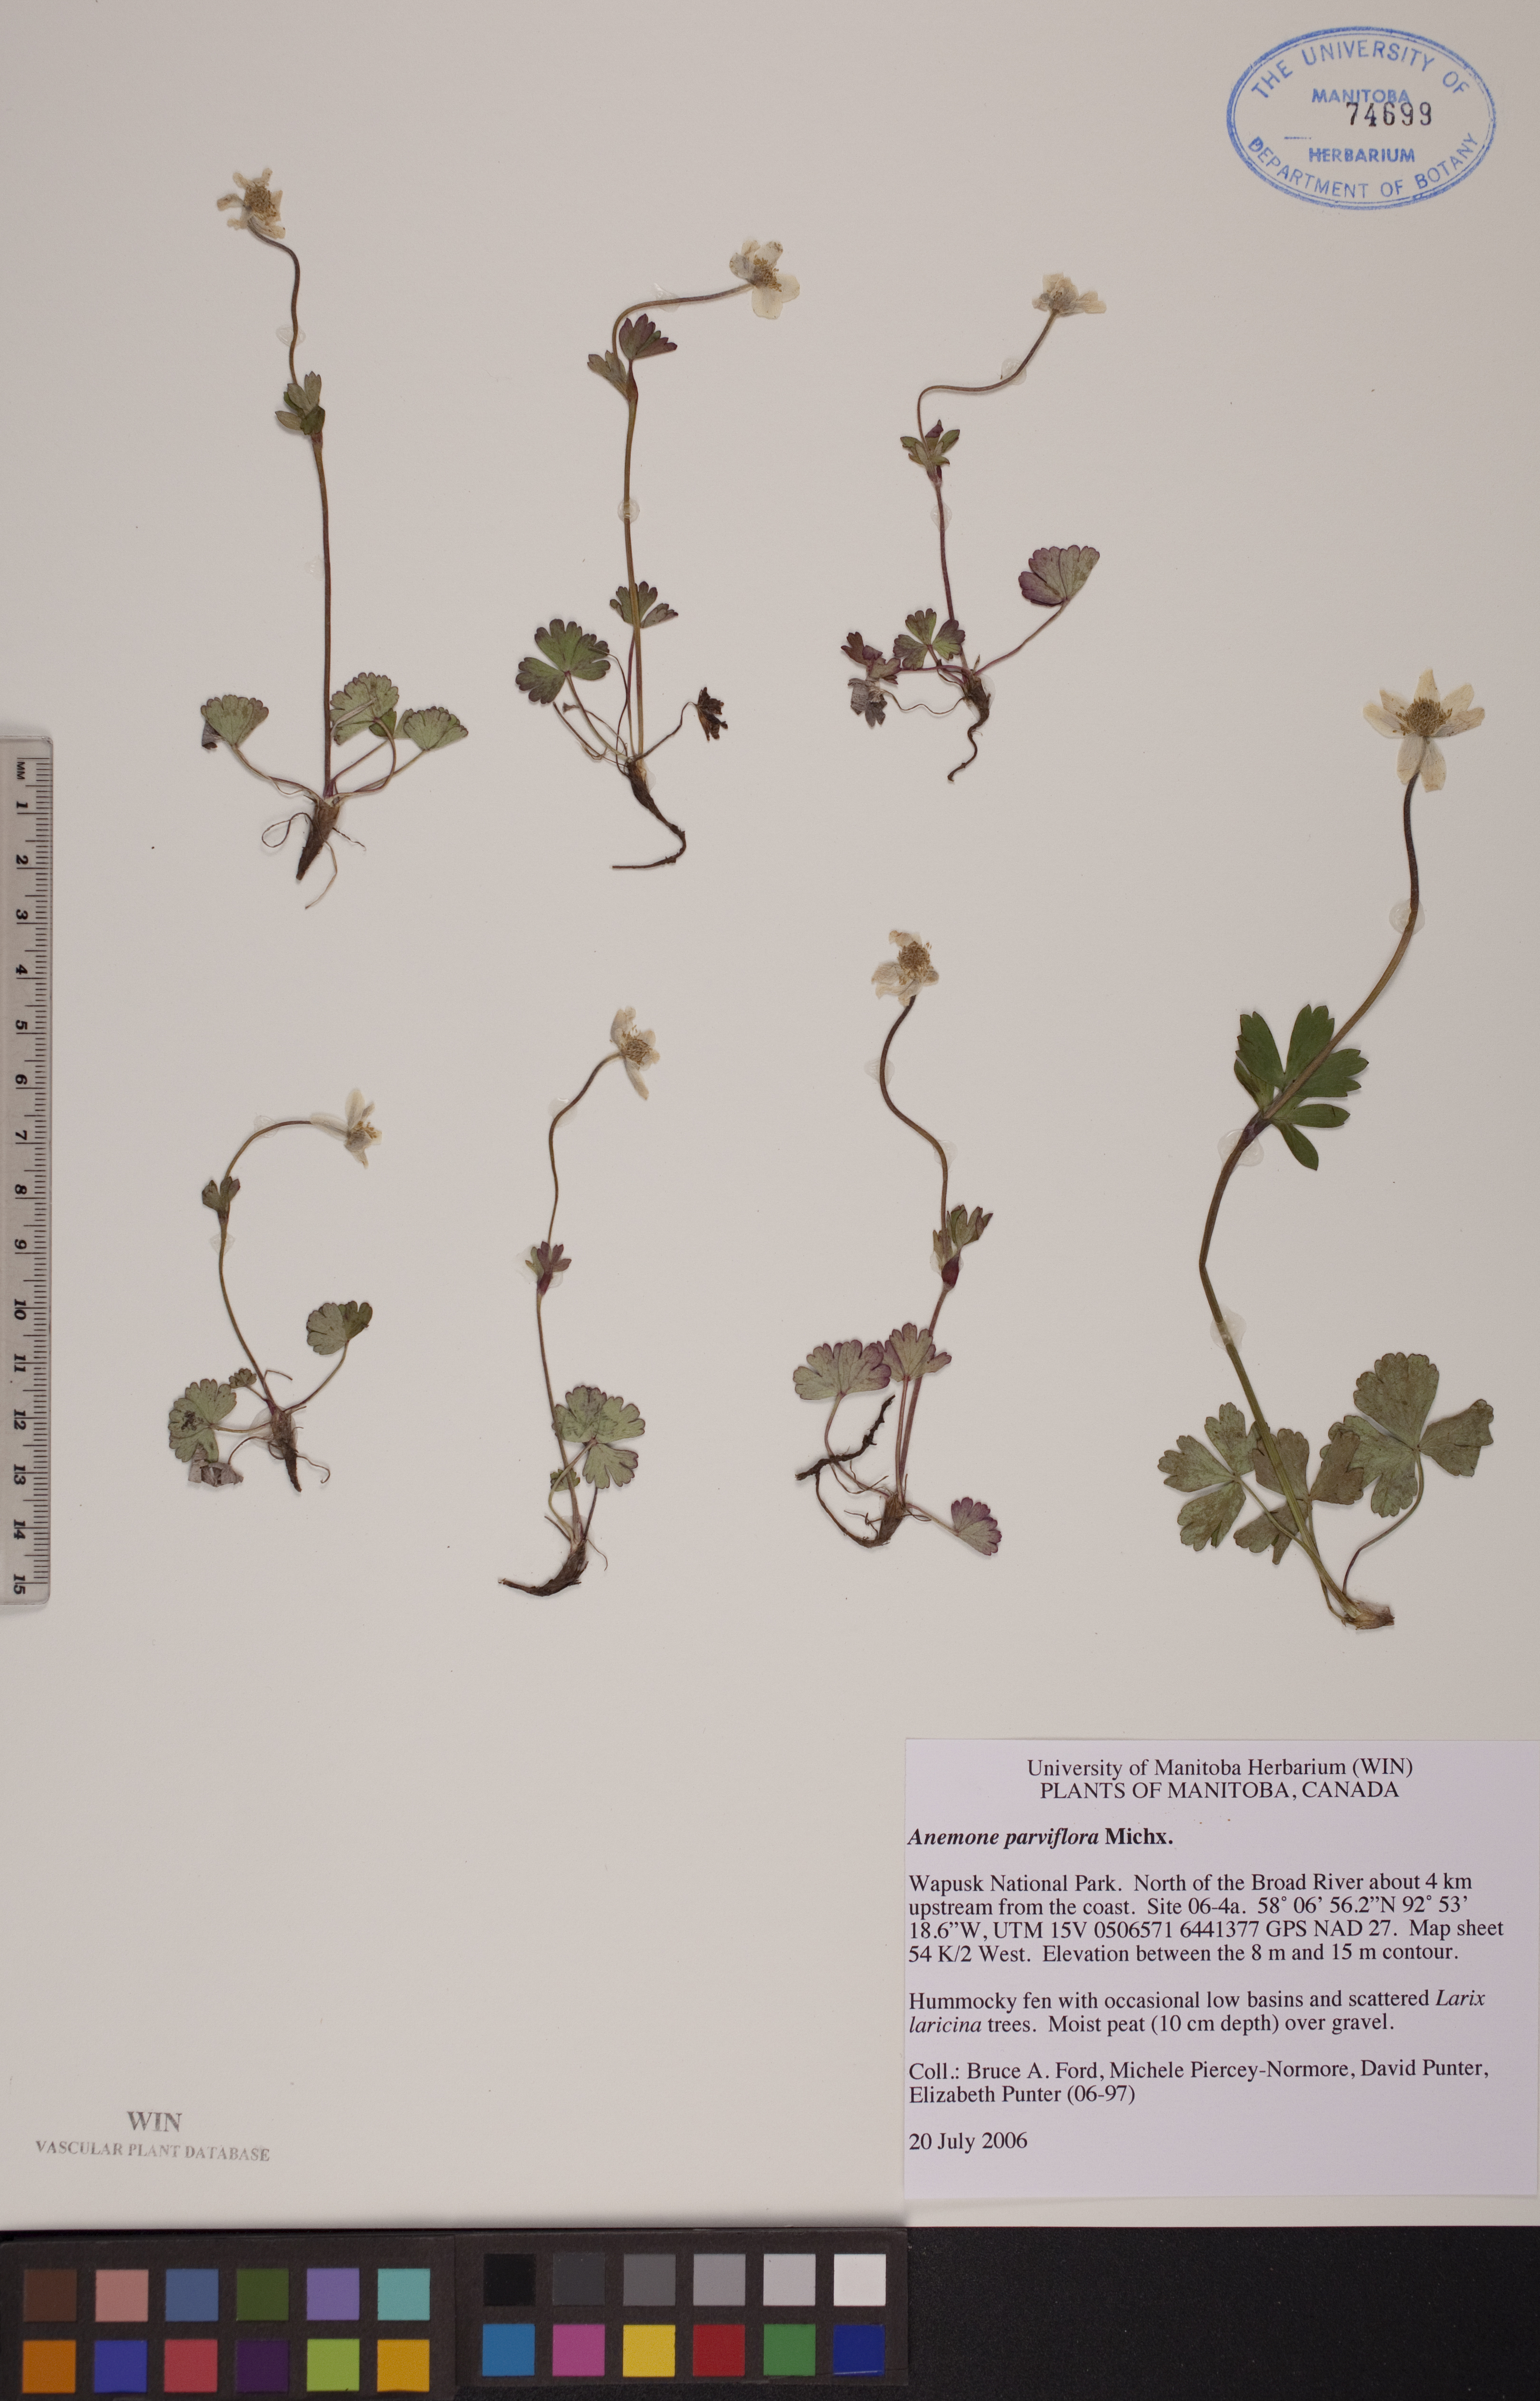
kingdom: Plantae
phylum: Tracheophyta
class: Magnoliopsida
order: Ranunculales
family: Ranunculaceae
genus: Anemone
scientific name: Anemone parviflora
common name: Northern anemone
